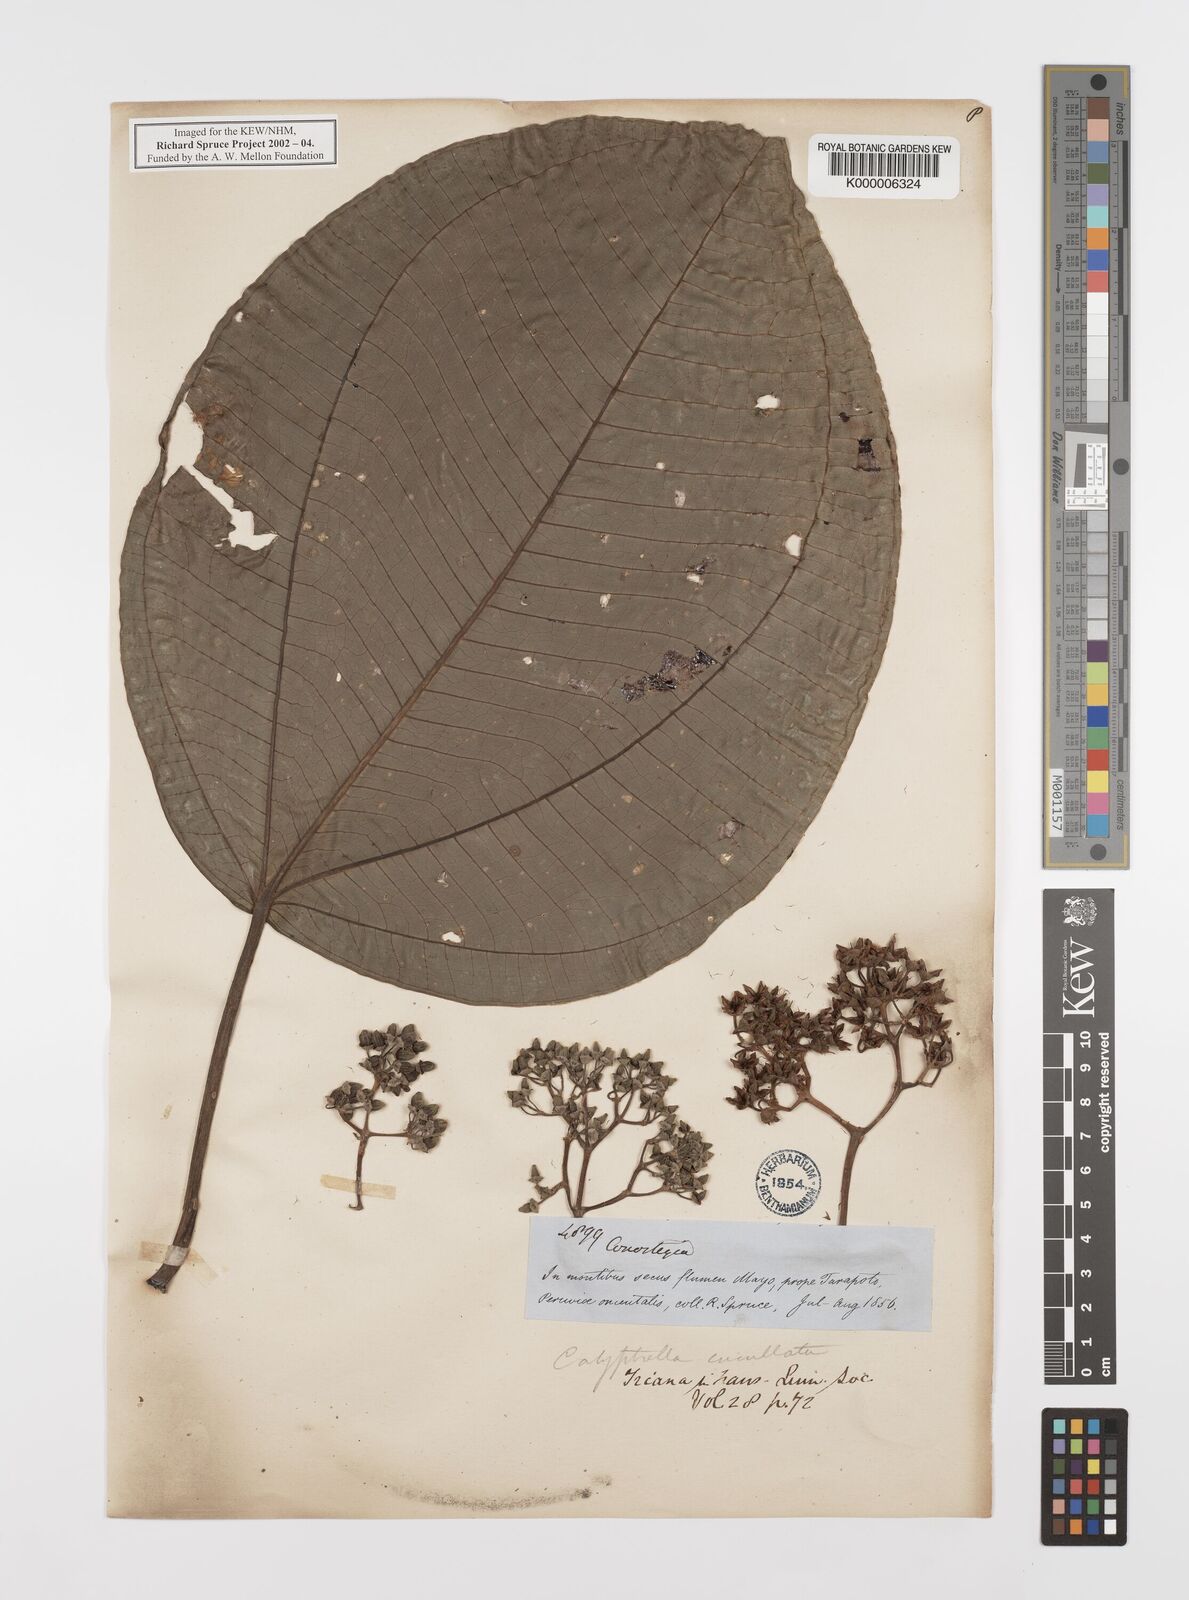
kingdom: Plantae
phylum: Tracheophyta
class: Magnoliopsida
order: Myrtales
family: Melastomataceae
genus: Graffenrieda
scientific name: Graffenrieda cucullata
